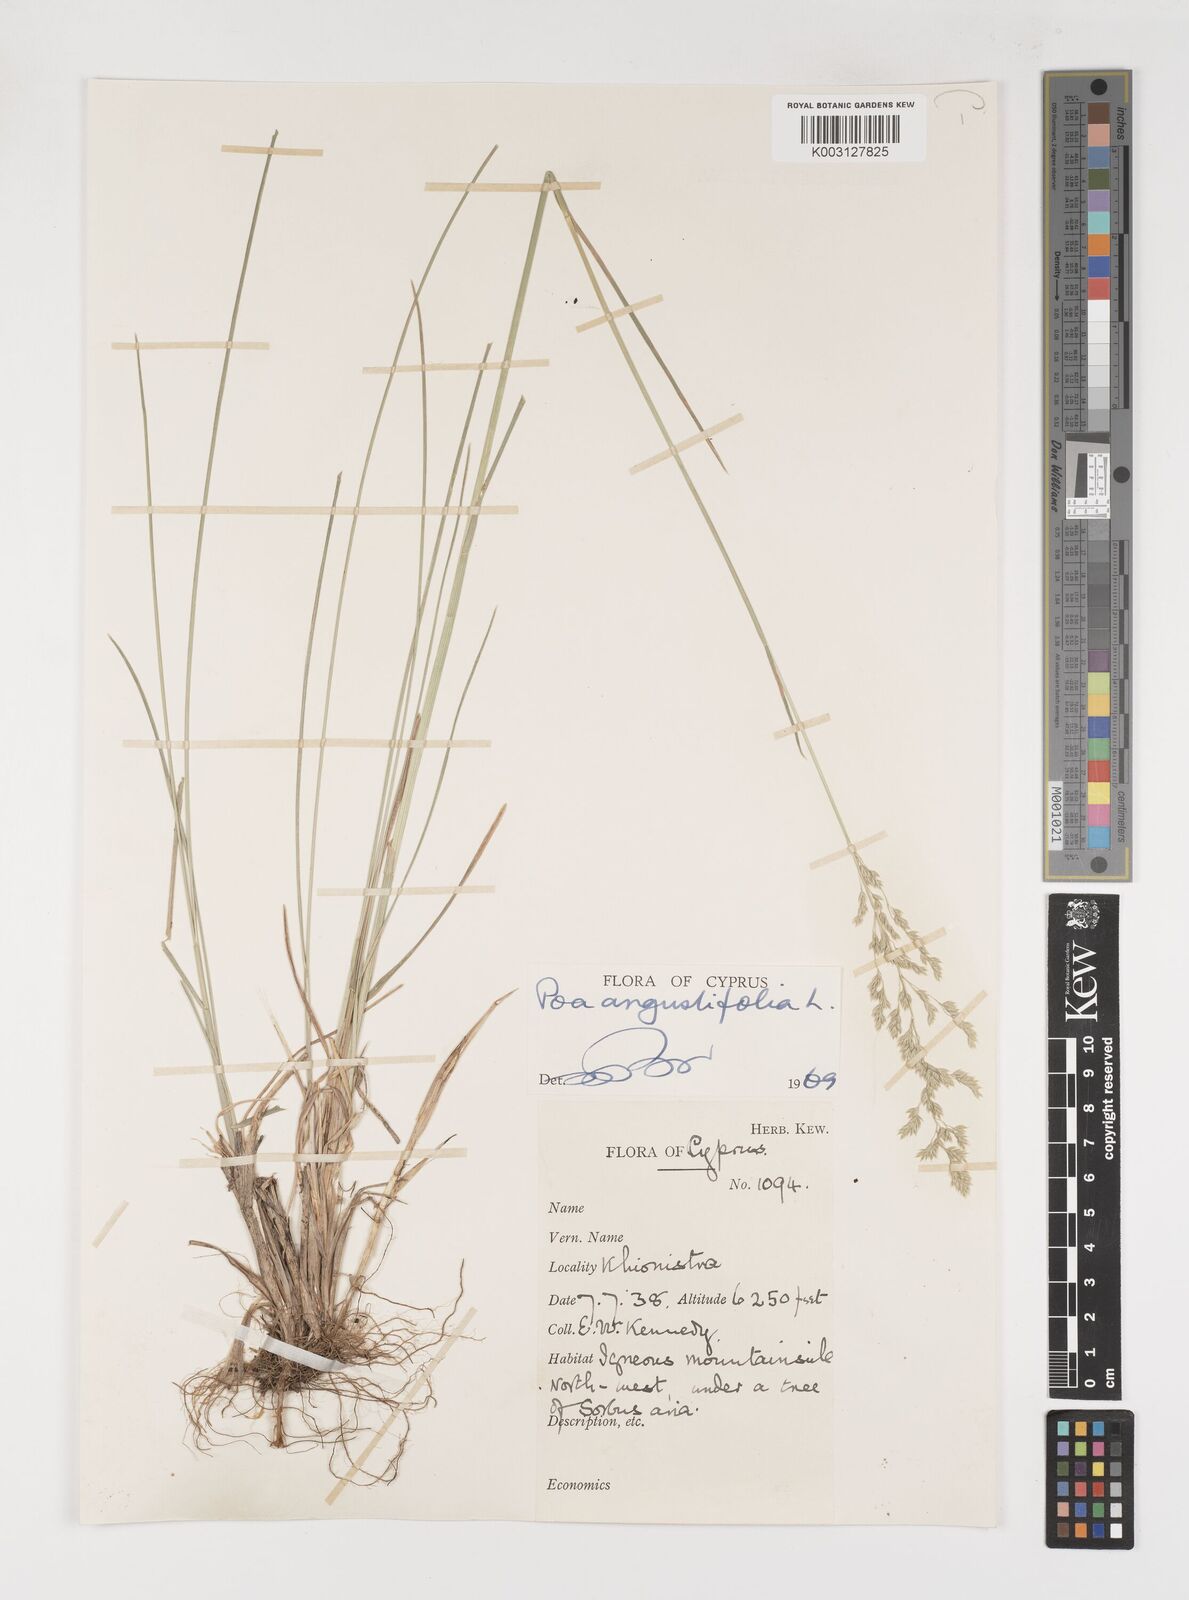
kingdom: Plantae
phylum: Tracheophyta
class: Liliopsida
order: Poales
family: Poaceae
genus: Poa
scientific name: Poa angustifolia
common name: Narrow-leaved meadow-grass
